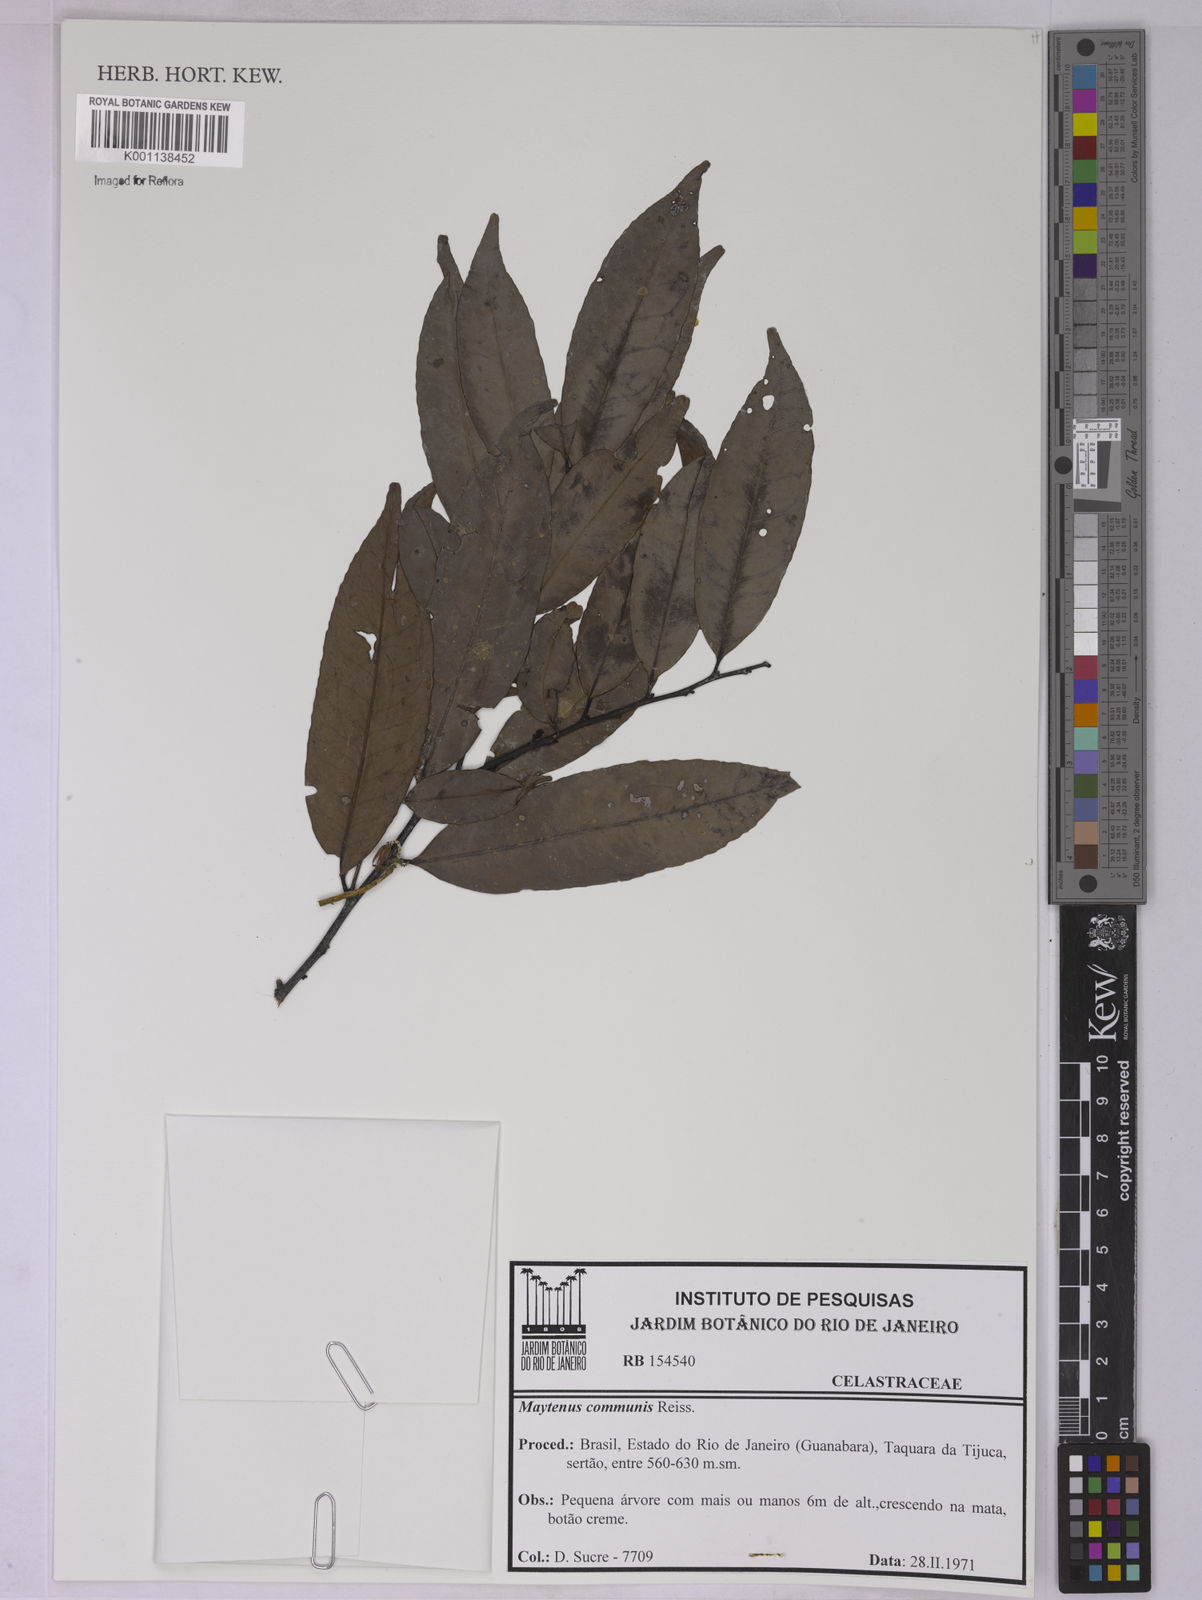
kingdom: Plantae
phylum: Tracheophyta
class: Magnoliopsida
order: Celastrales
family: Celastraceae
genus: Monteverdia
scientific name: Monteverdia communis
